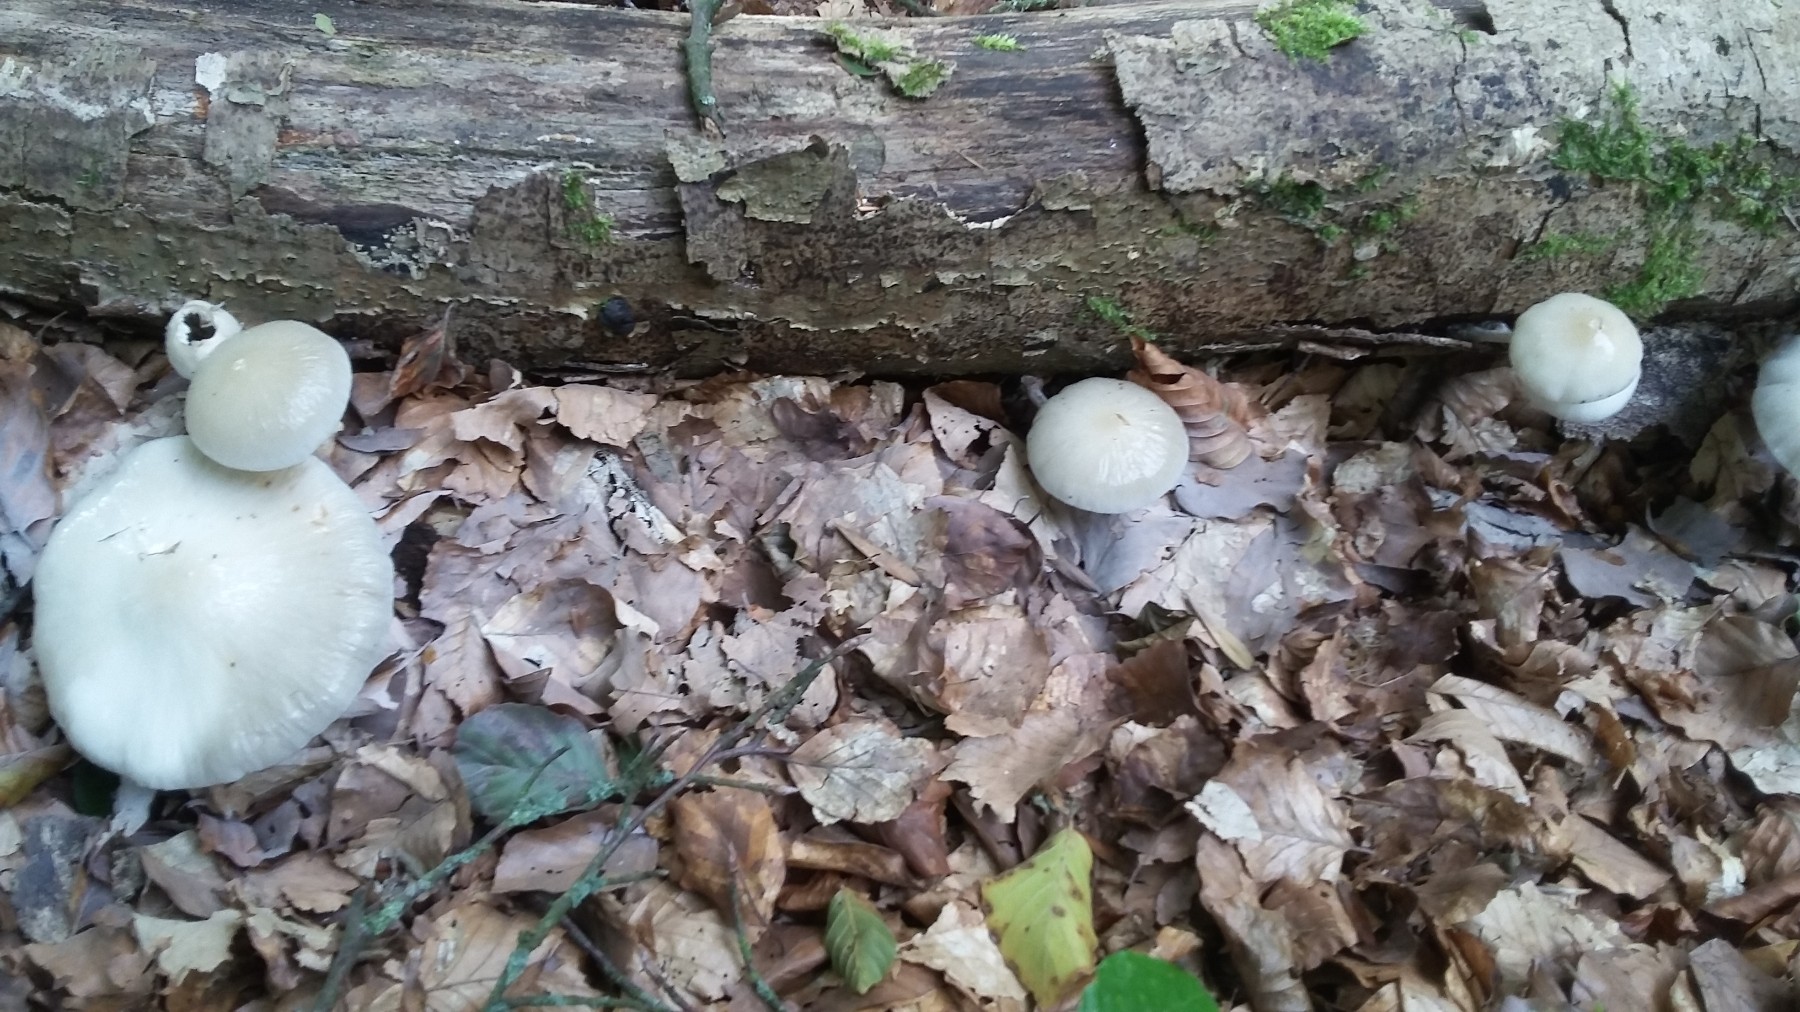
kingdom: Fungi
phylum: Basidiomycota
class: Agaricomycetes
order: Agaricales
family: Physalacriaceae
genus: Mucidula
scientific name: Mucidula mucida
